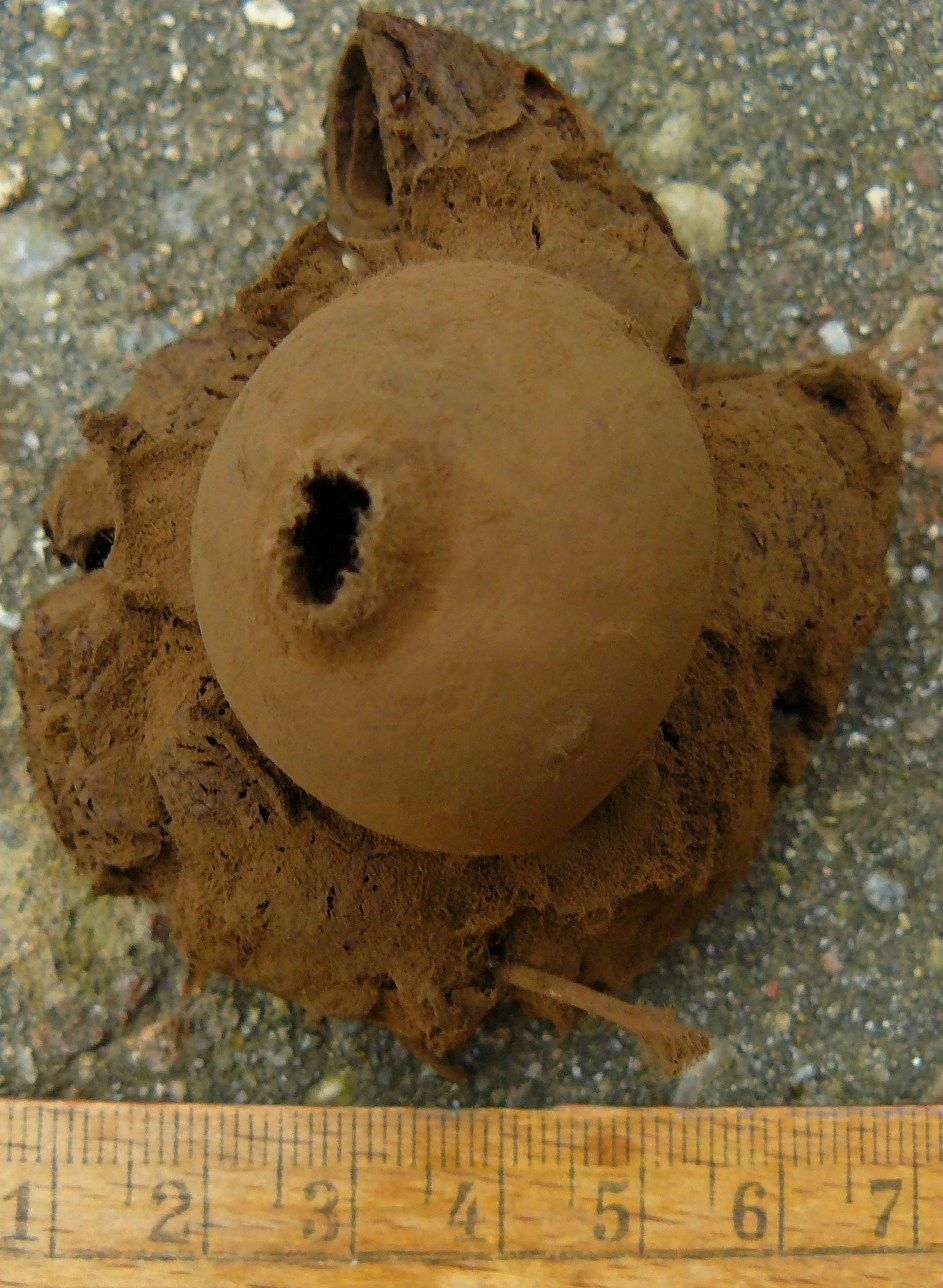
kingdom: Fungi
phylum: Basidiomycota
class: Agaricomycetes
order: Geastrales
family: Geastraceae
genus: Geastrum
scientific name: Geastrum michelianum
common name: kødet stjernebold
